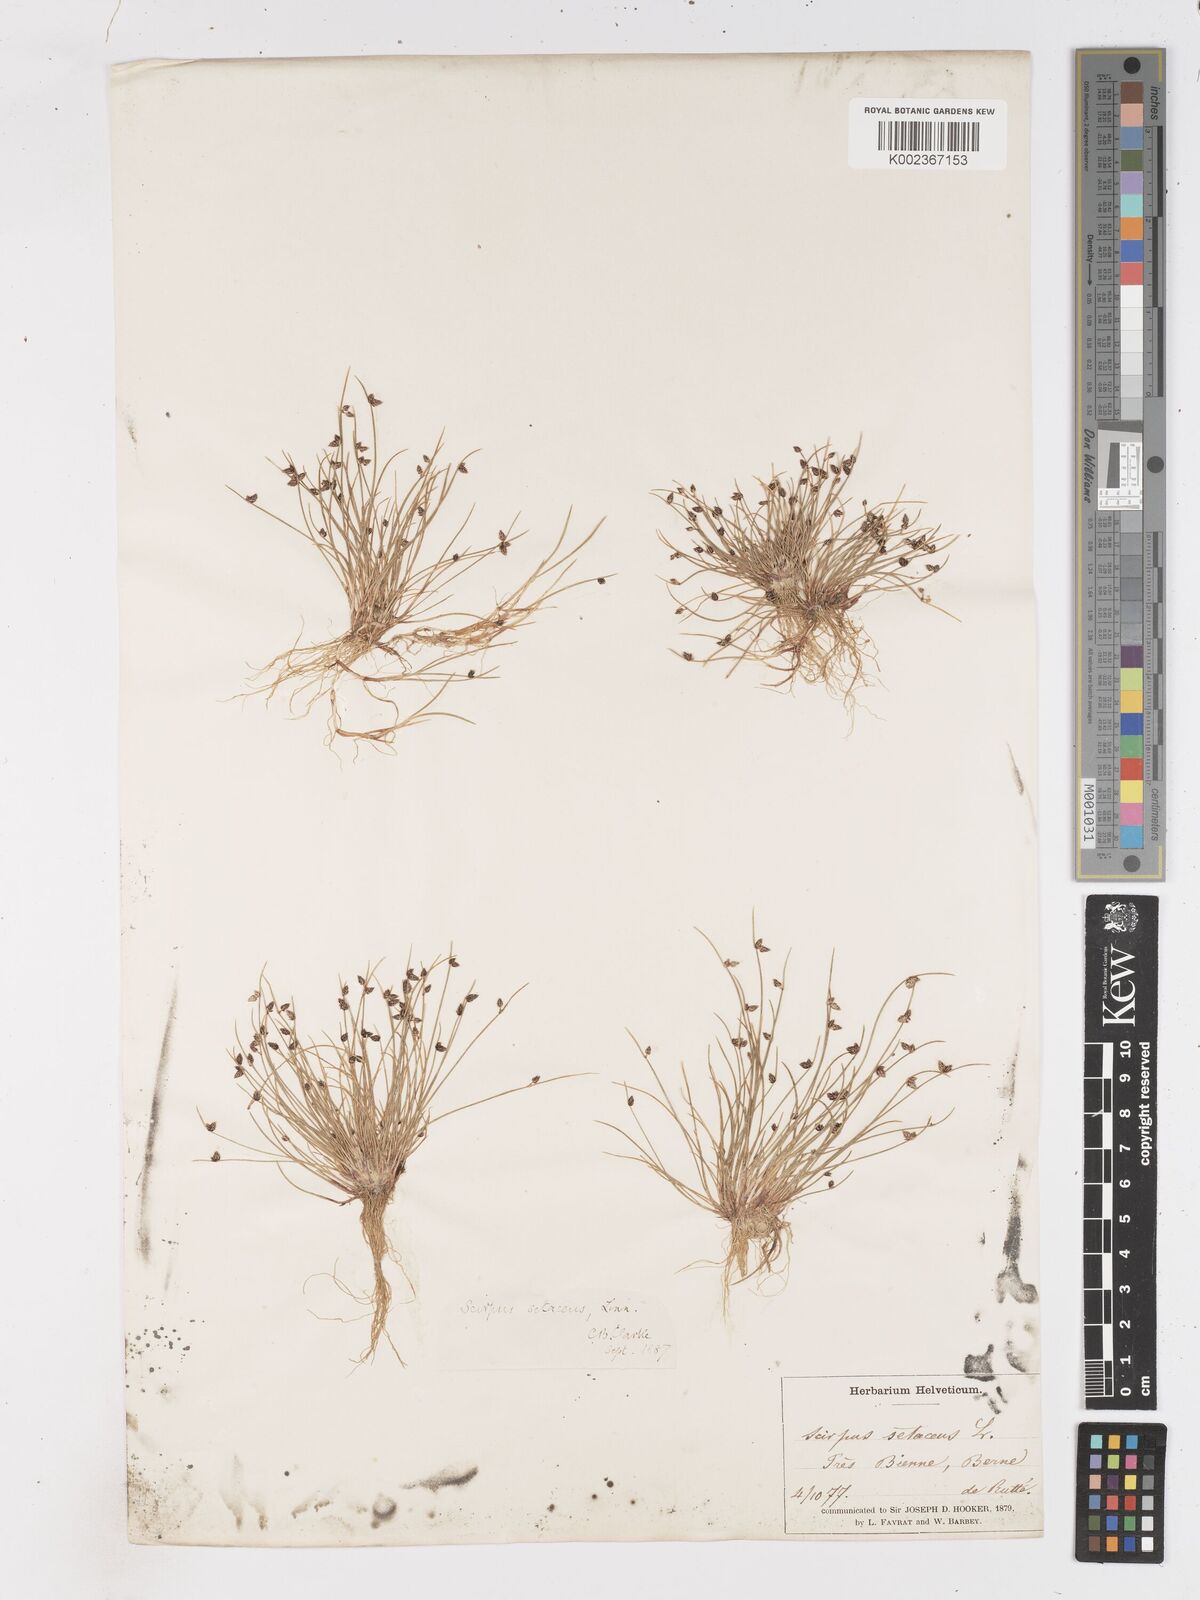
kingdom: Plantae
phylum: Tracheophyta
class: Liliopsida
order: Poales
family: Cyperaceae
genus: Isolepis
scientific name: Isolepis setacea
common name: Bristle club-rush
